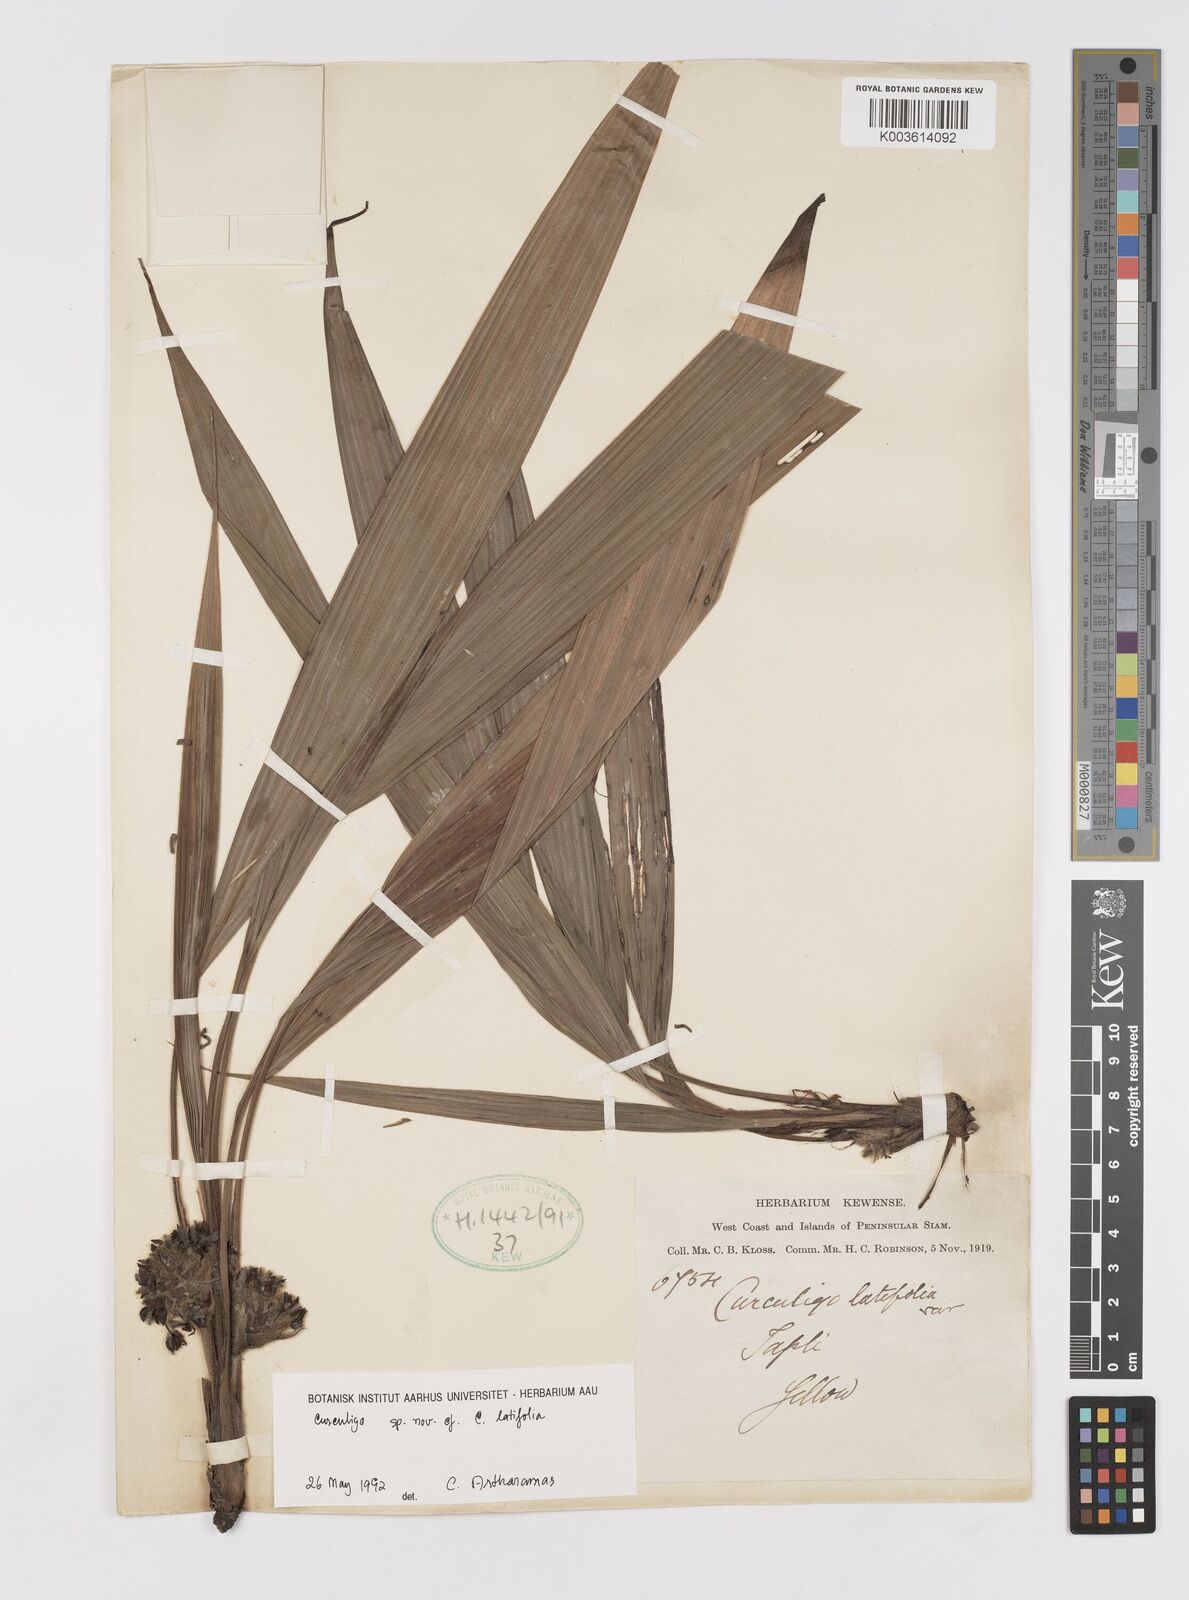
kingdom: Plantae
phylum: Tracheophyta
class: Liliopsida
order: Asparagales
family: Hypoxidaceae
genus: Curculigo
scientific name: Curculigo
